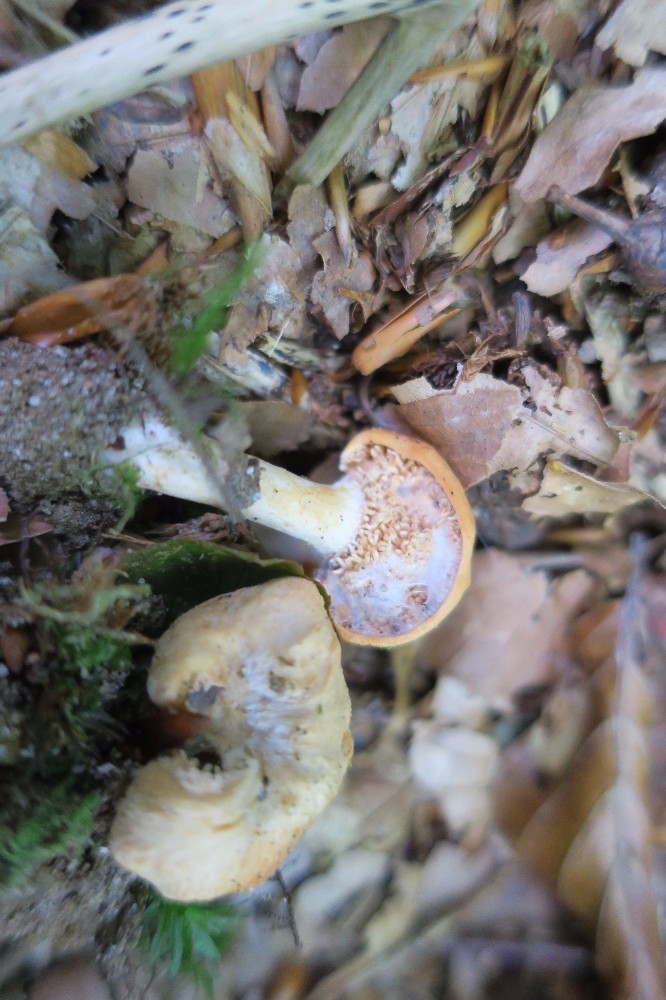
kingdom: Fungi
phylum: Basidiomycota
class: Agaricomycetes
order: Cantharellales
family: Hydnaceae
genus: Hydnum
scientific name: Hydnum
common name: pigsvamp
